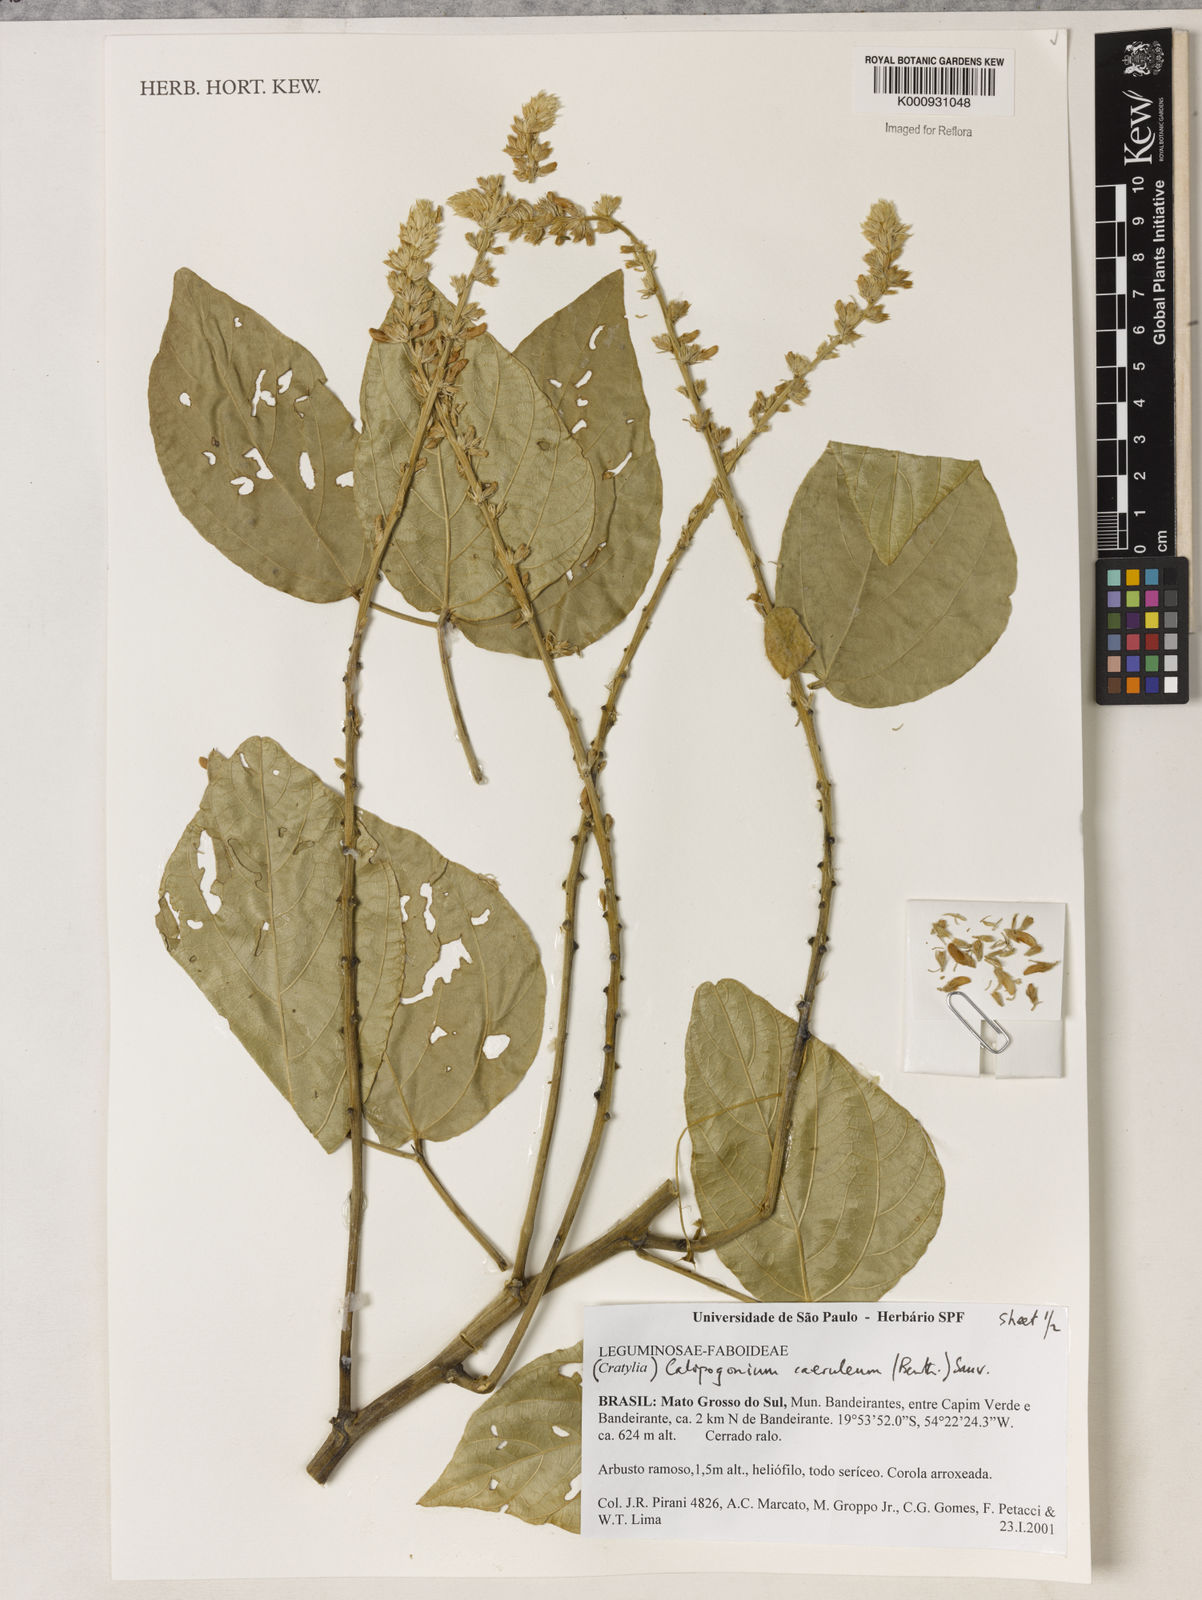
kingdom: Plantae
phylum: Tracheophyta
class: Magnoliopsida
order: Fabales
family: Fabaceae
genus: Calopogonium
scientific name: Calopogonium caeruleum
